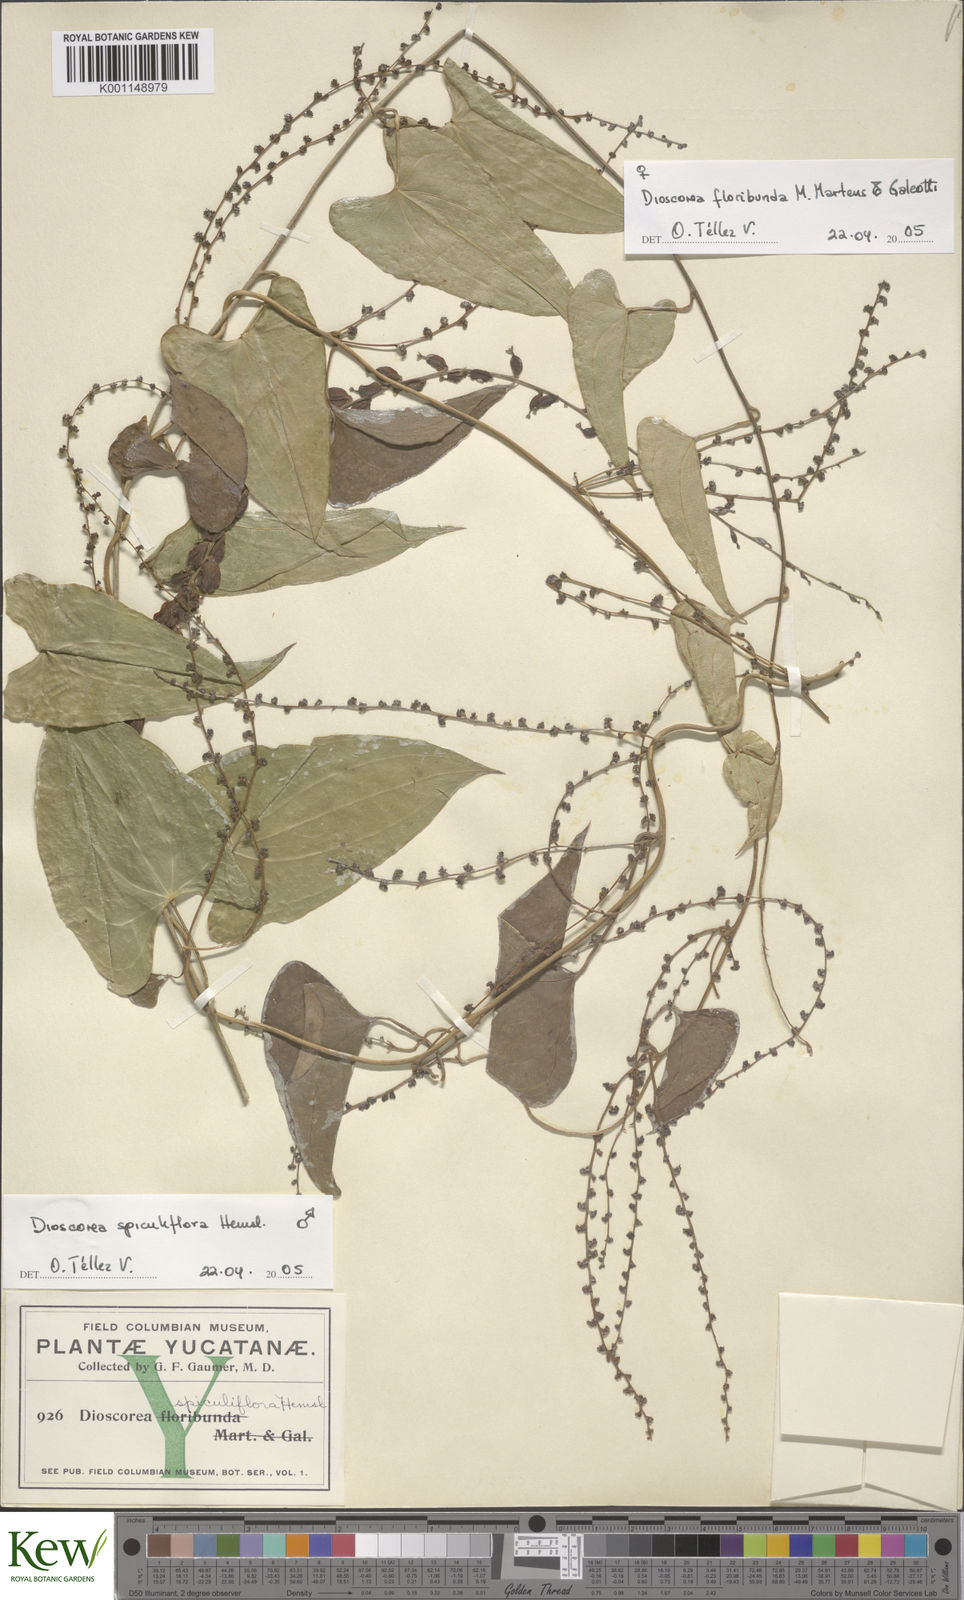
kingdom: Plantae
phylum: Tracheophyta
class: Liliopsida
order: Dioscoreales
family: Dioscoreaceae
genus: Dioscorea
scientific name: Dioscorea spiculiflora
